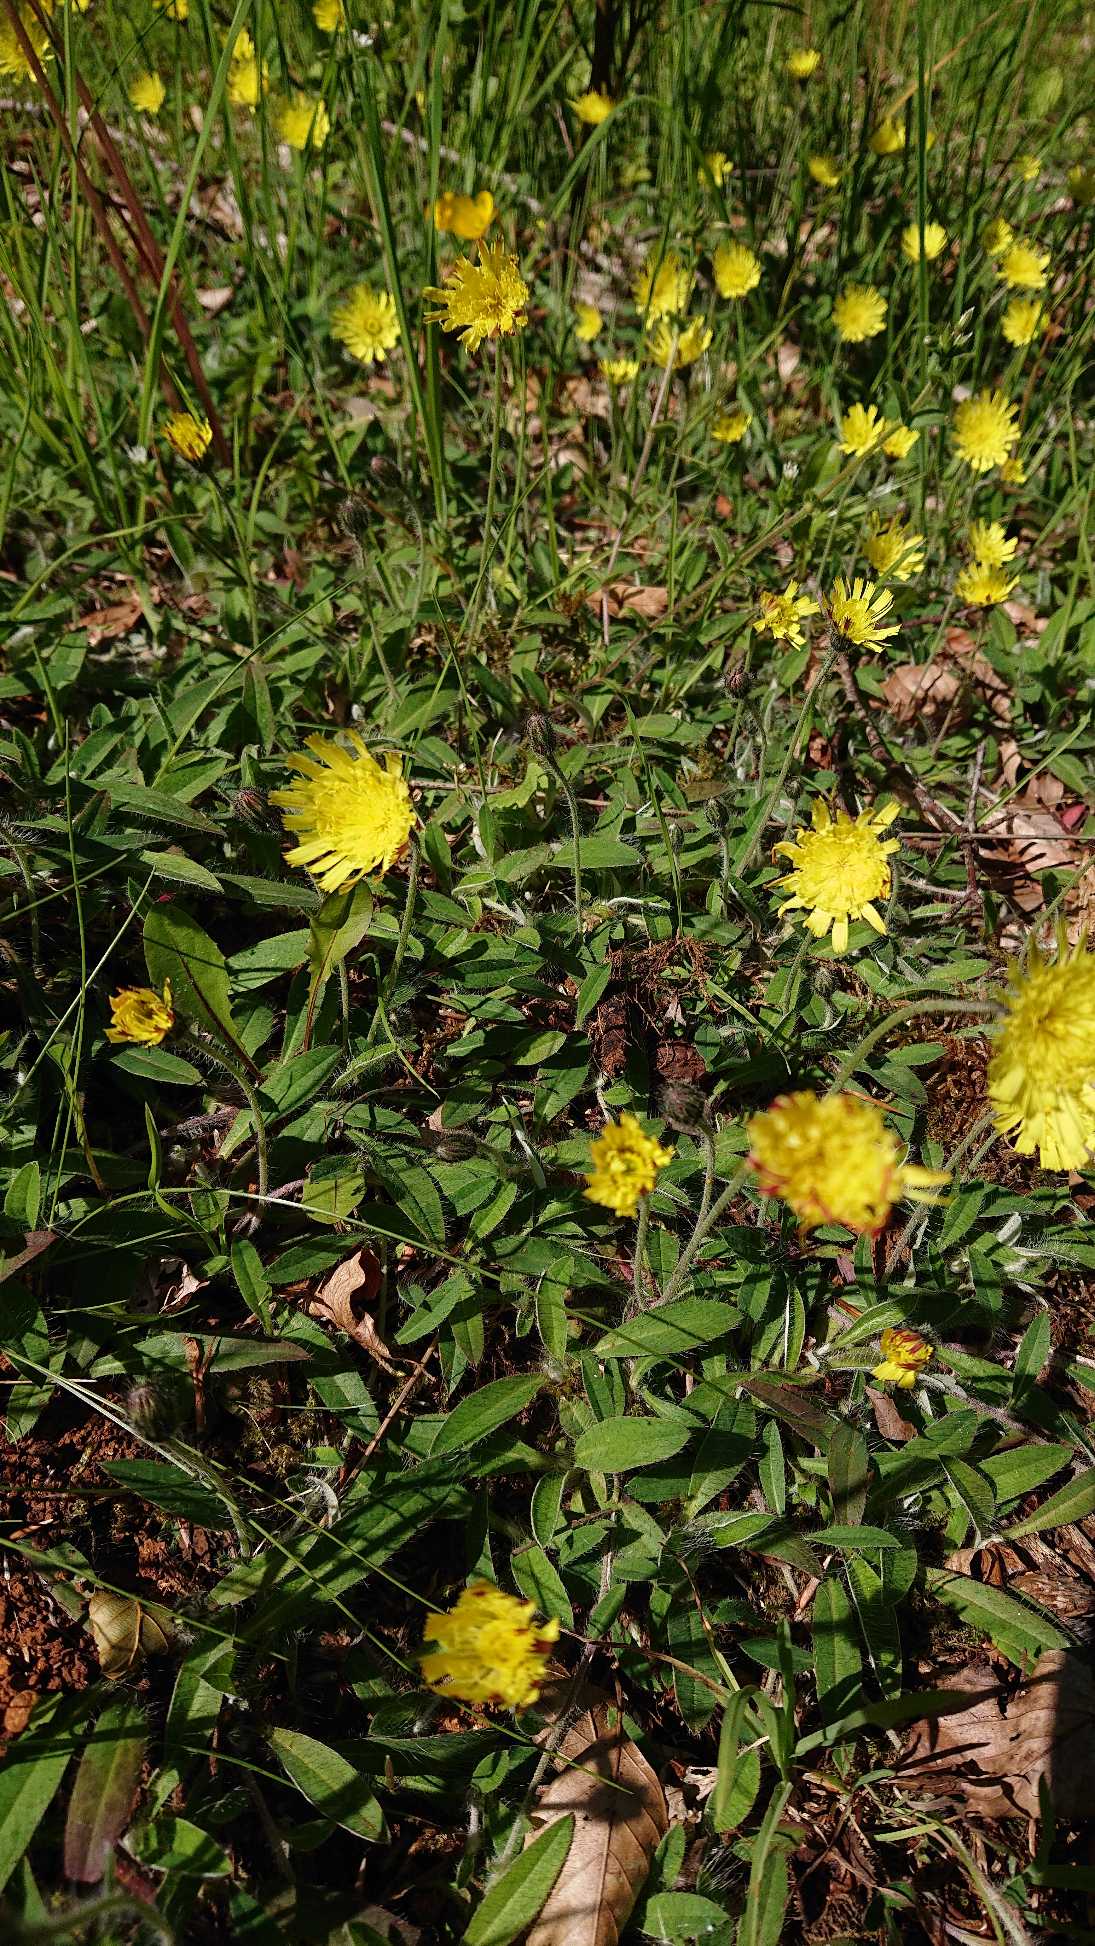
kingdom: Plantae
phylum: Tracheophyta
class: Magnoliopsida
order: Asterales
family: Asteraceae
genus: Pilosella
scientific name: Pilosella officinarum
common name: Håret høgeurt
